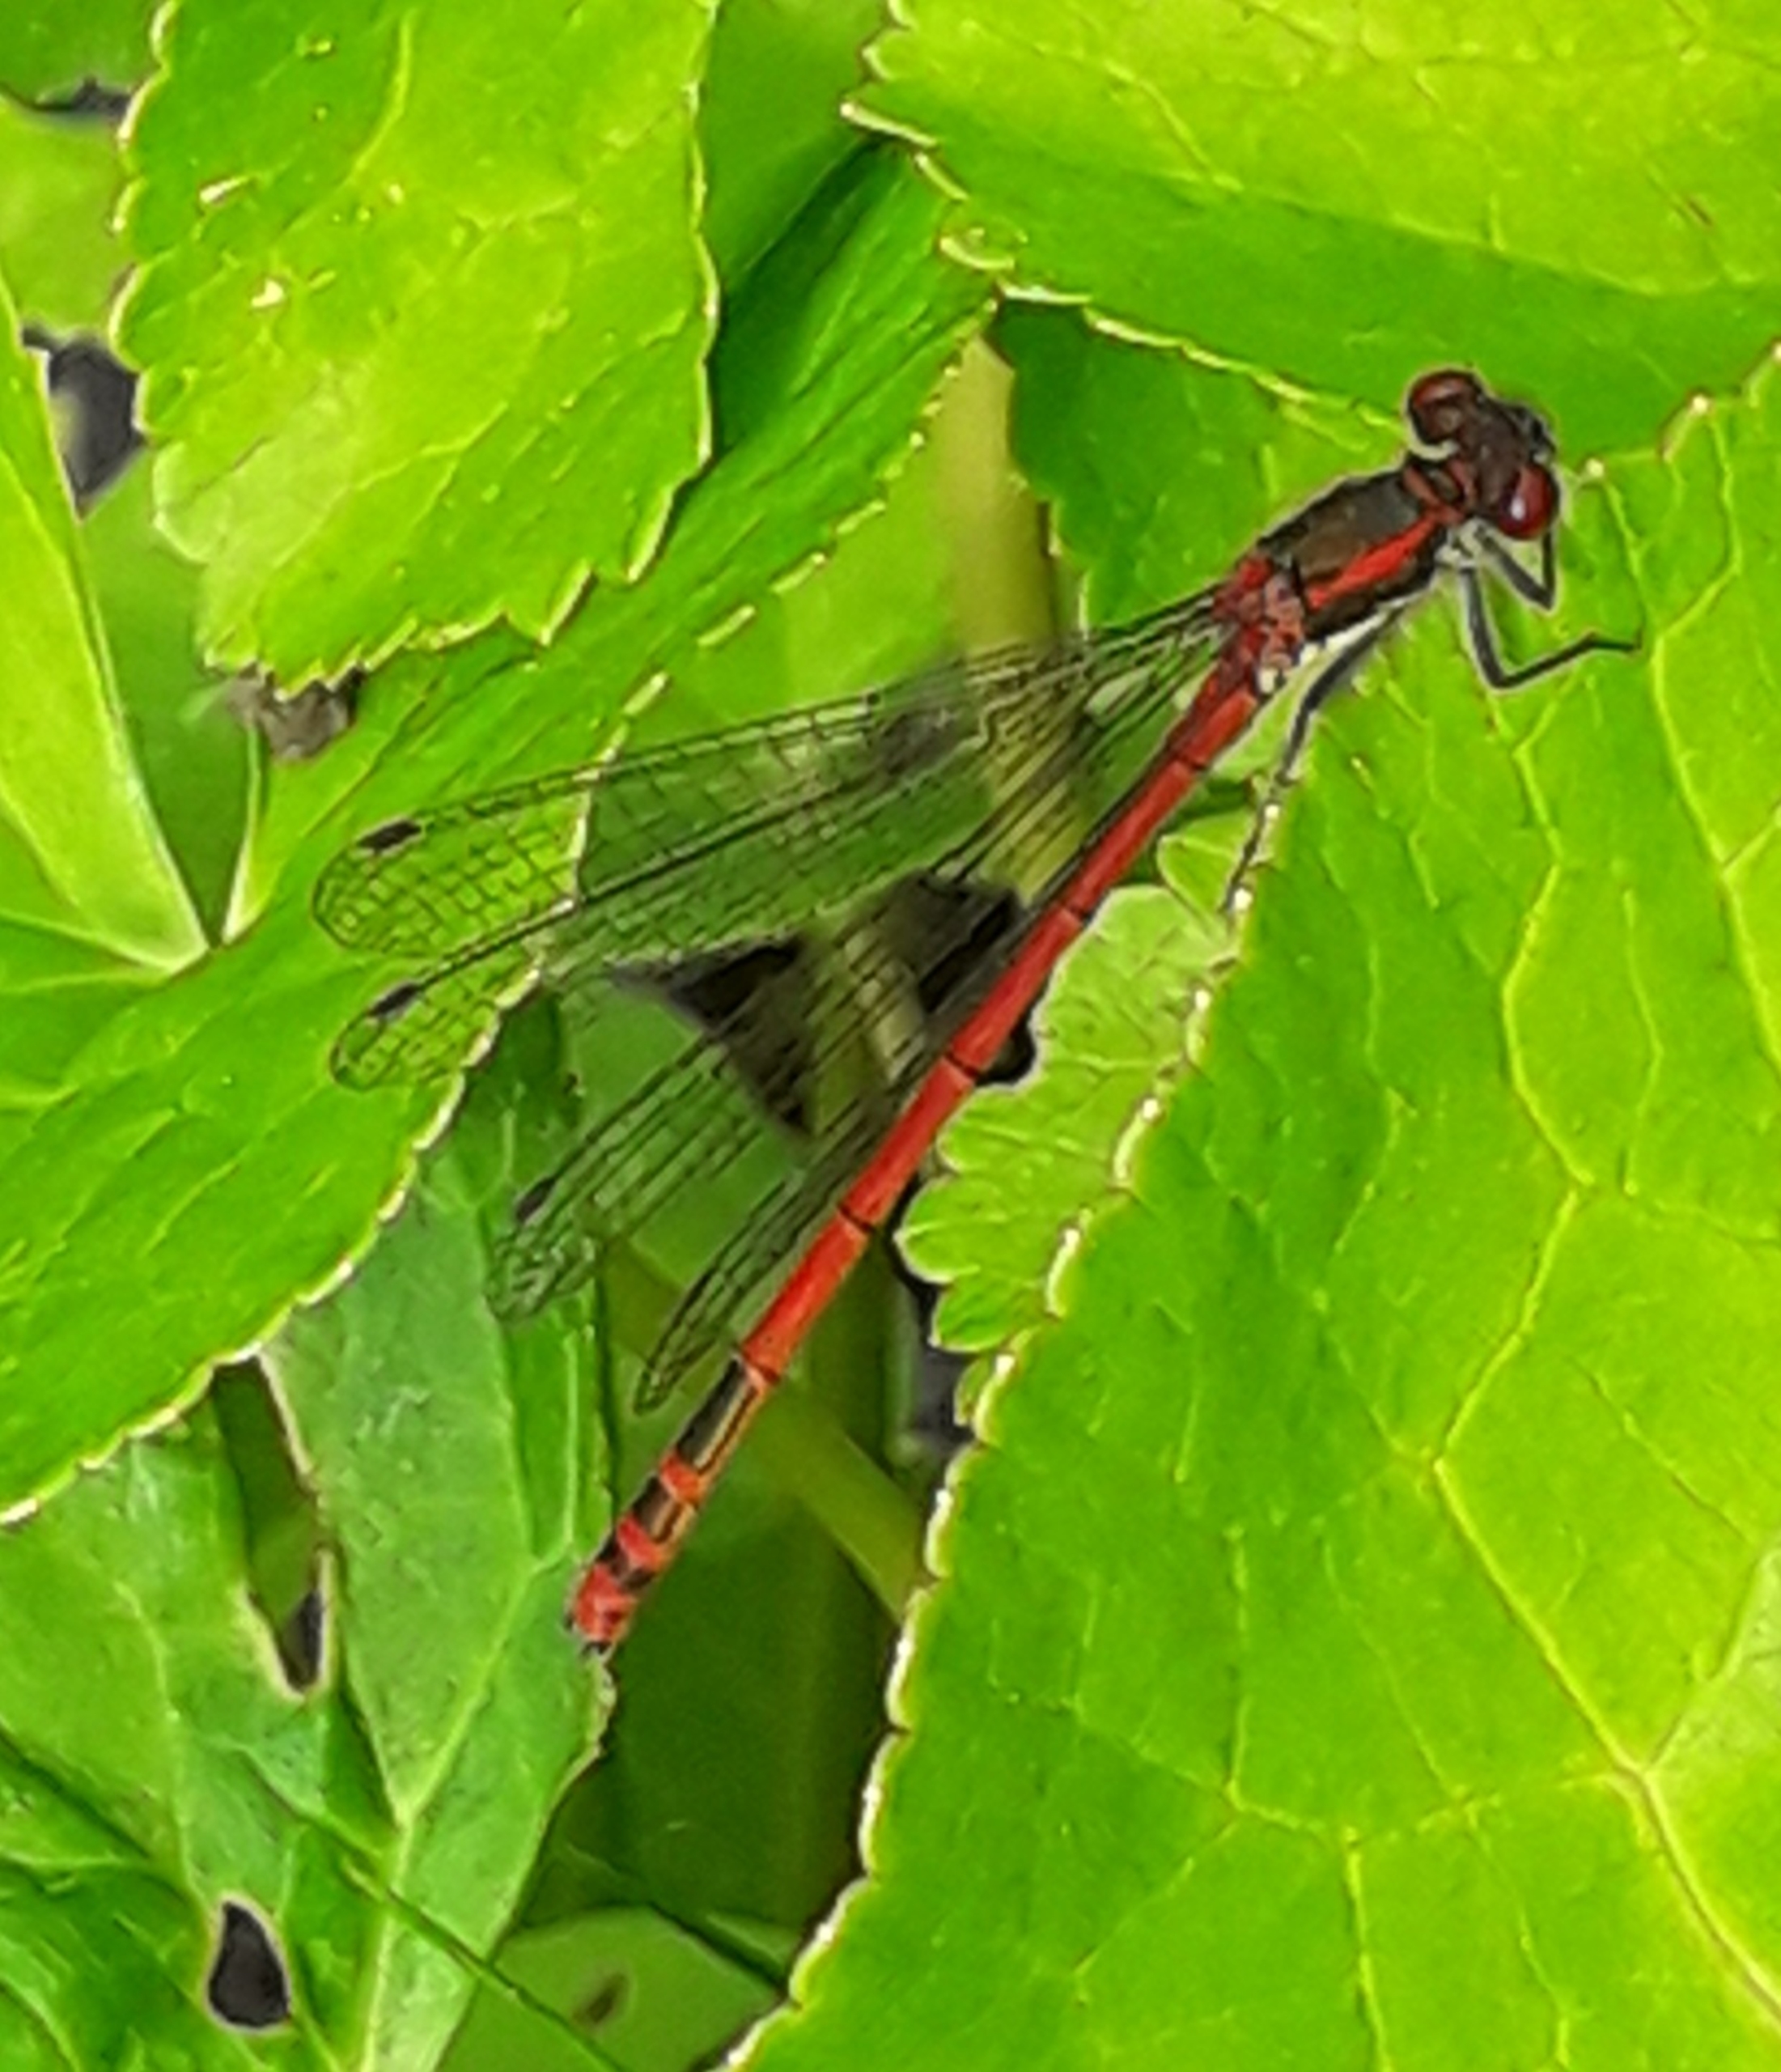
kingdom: Animalia
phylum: Arthropoda
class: Insecta
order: Odonata
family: Coenagrionidae
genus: Pyrrhosoma
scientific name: Pyrrhosoma nymphula
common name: Rød vandnymfe
